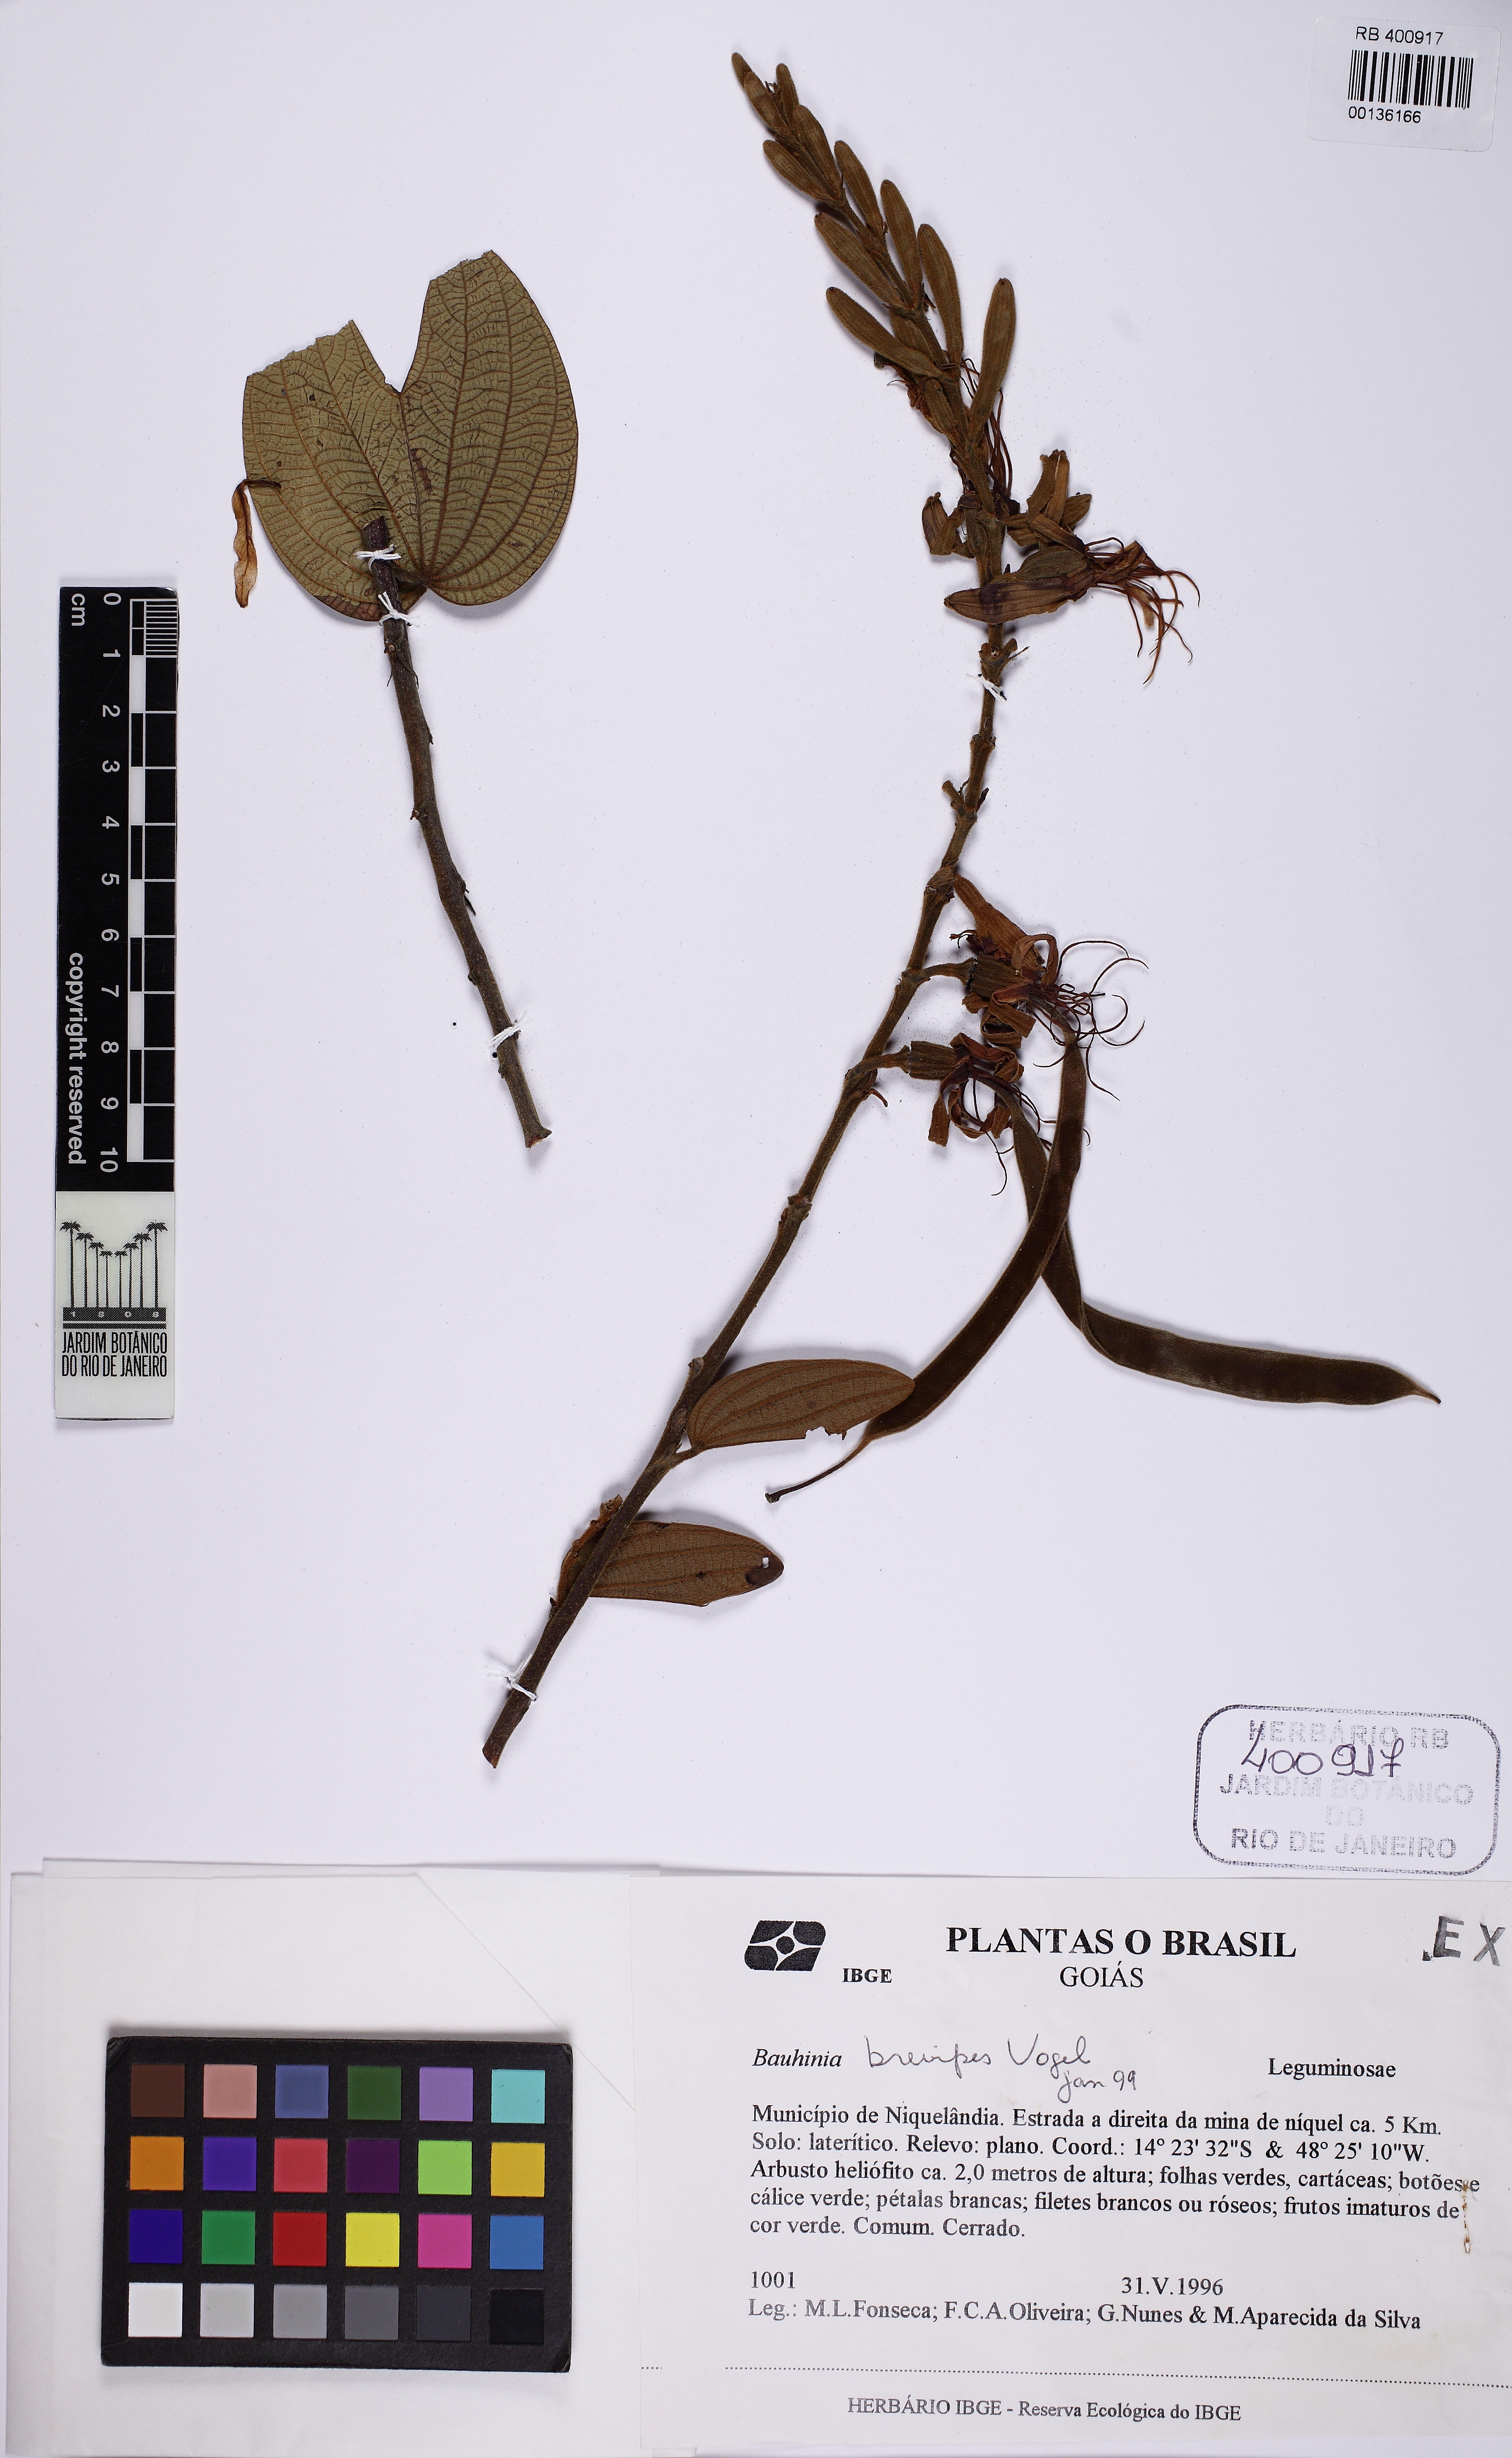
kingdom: Plantae
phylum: Tracheophyta
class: Magnoliopsida
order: Fabales
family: Fabaceae
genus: Bauhinia
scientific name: Bauhinia brevipes
